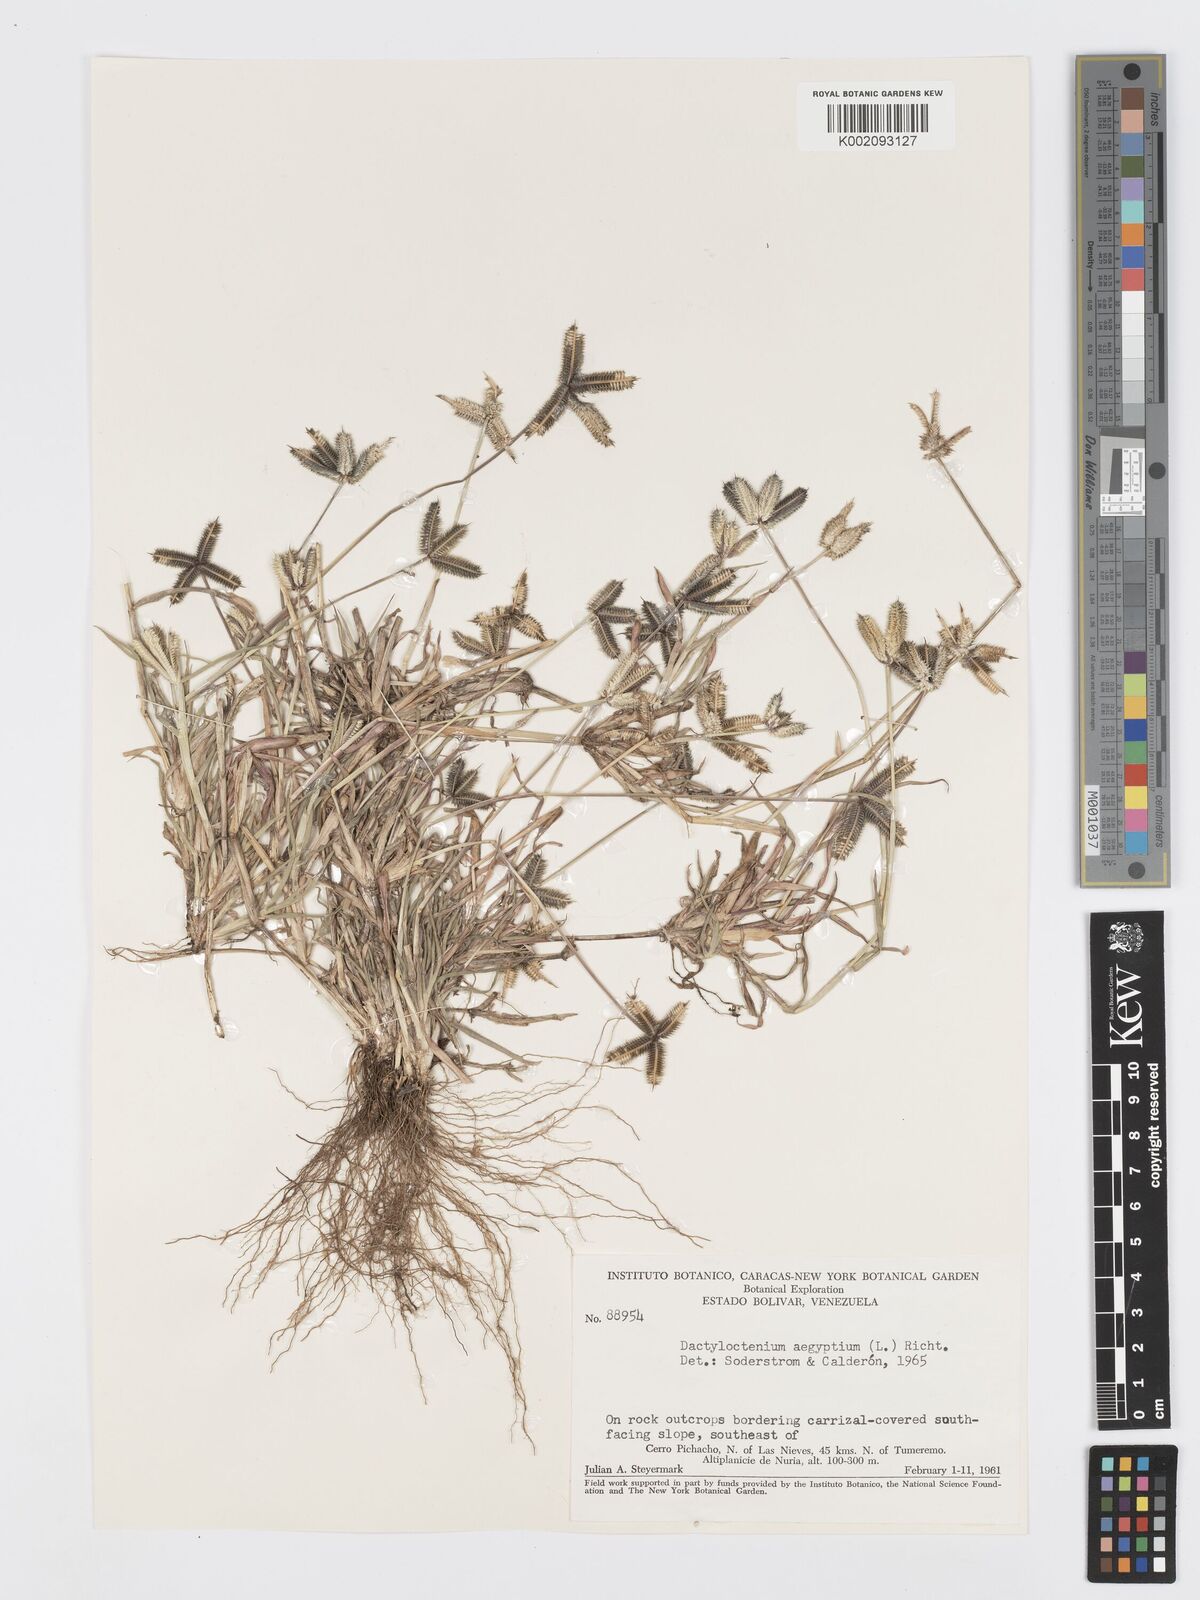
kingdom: Plantae
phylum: Tracheophyta
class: Liliopsida
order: Poales
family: Poaceae
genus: Dactyloctenium
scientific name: Dactyloctenium aegyptium
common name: Egyptian grass
